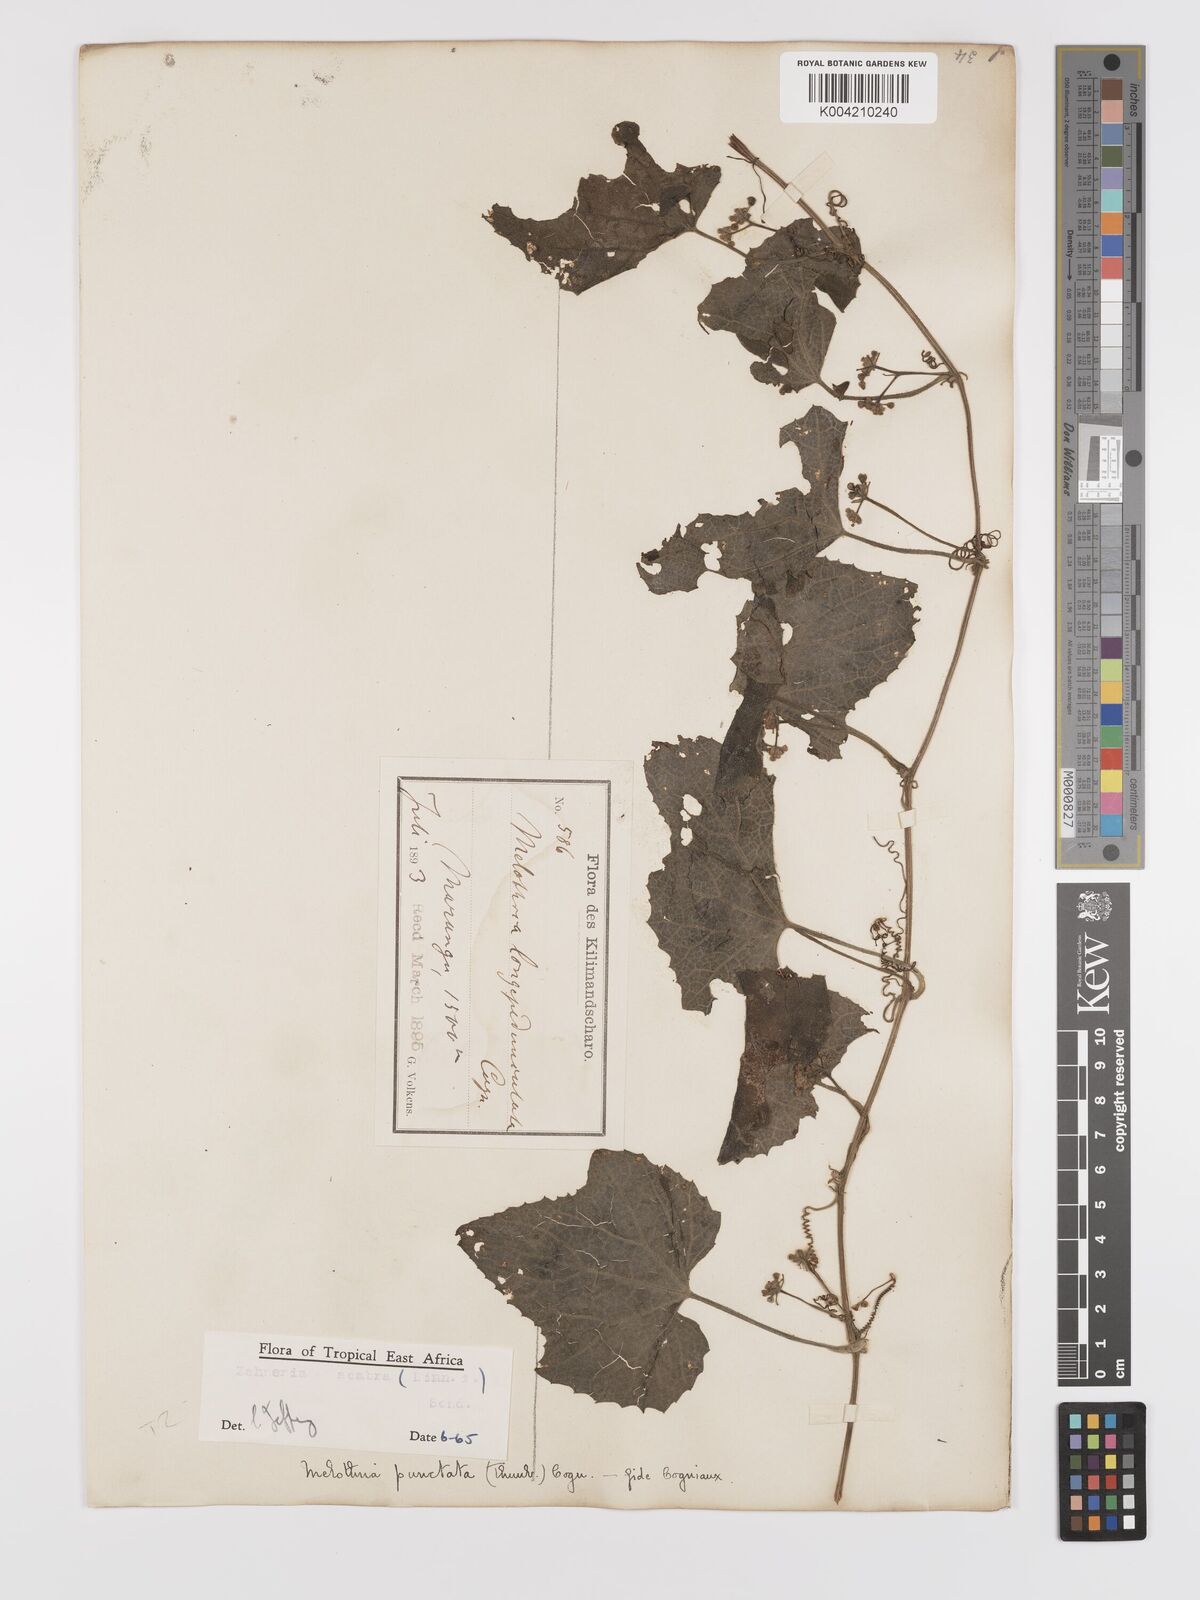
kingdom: Plantae
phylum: Tracheophyta
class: Magnoliopsida
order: Cucurbitales
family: Cucurbitaceae
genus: Zehneria
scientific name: Zehneria scabra
